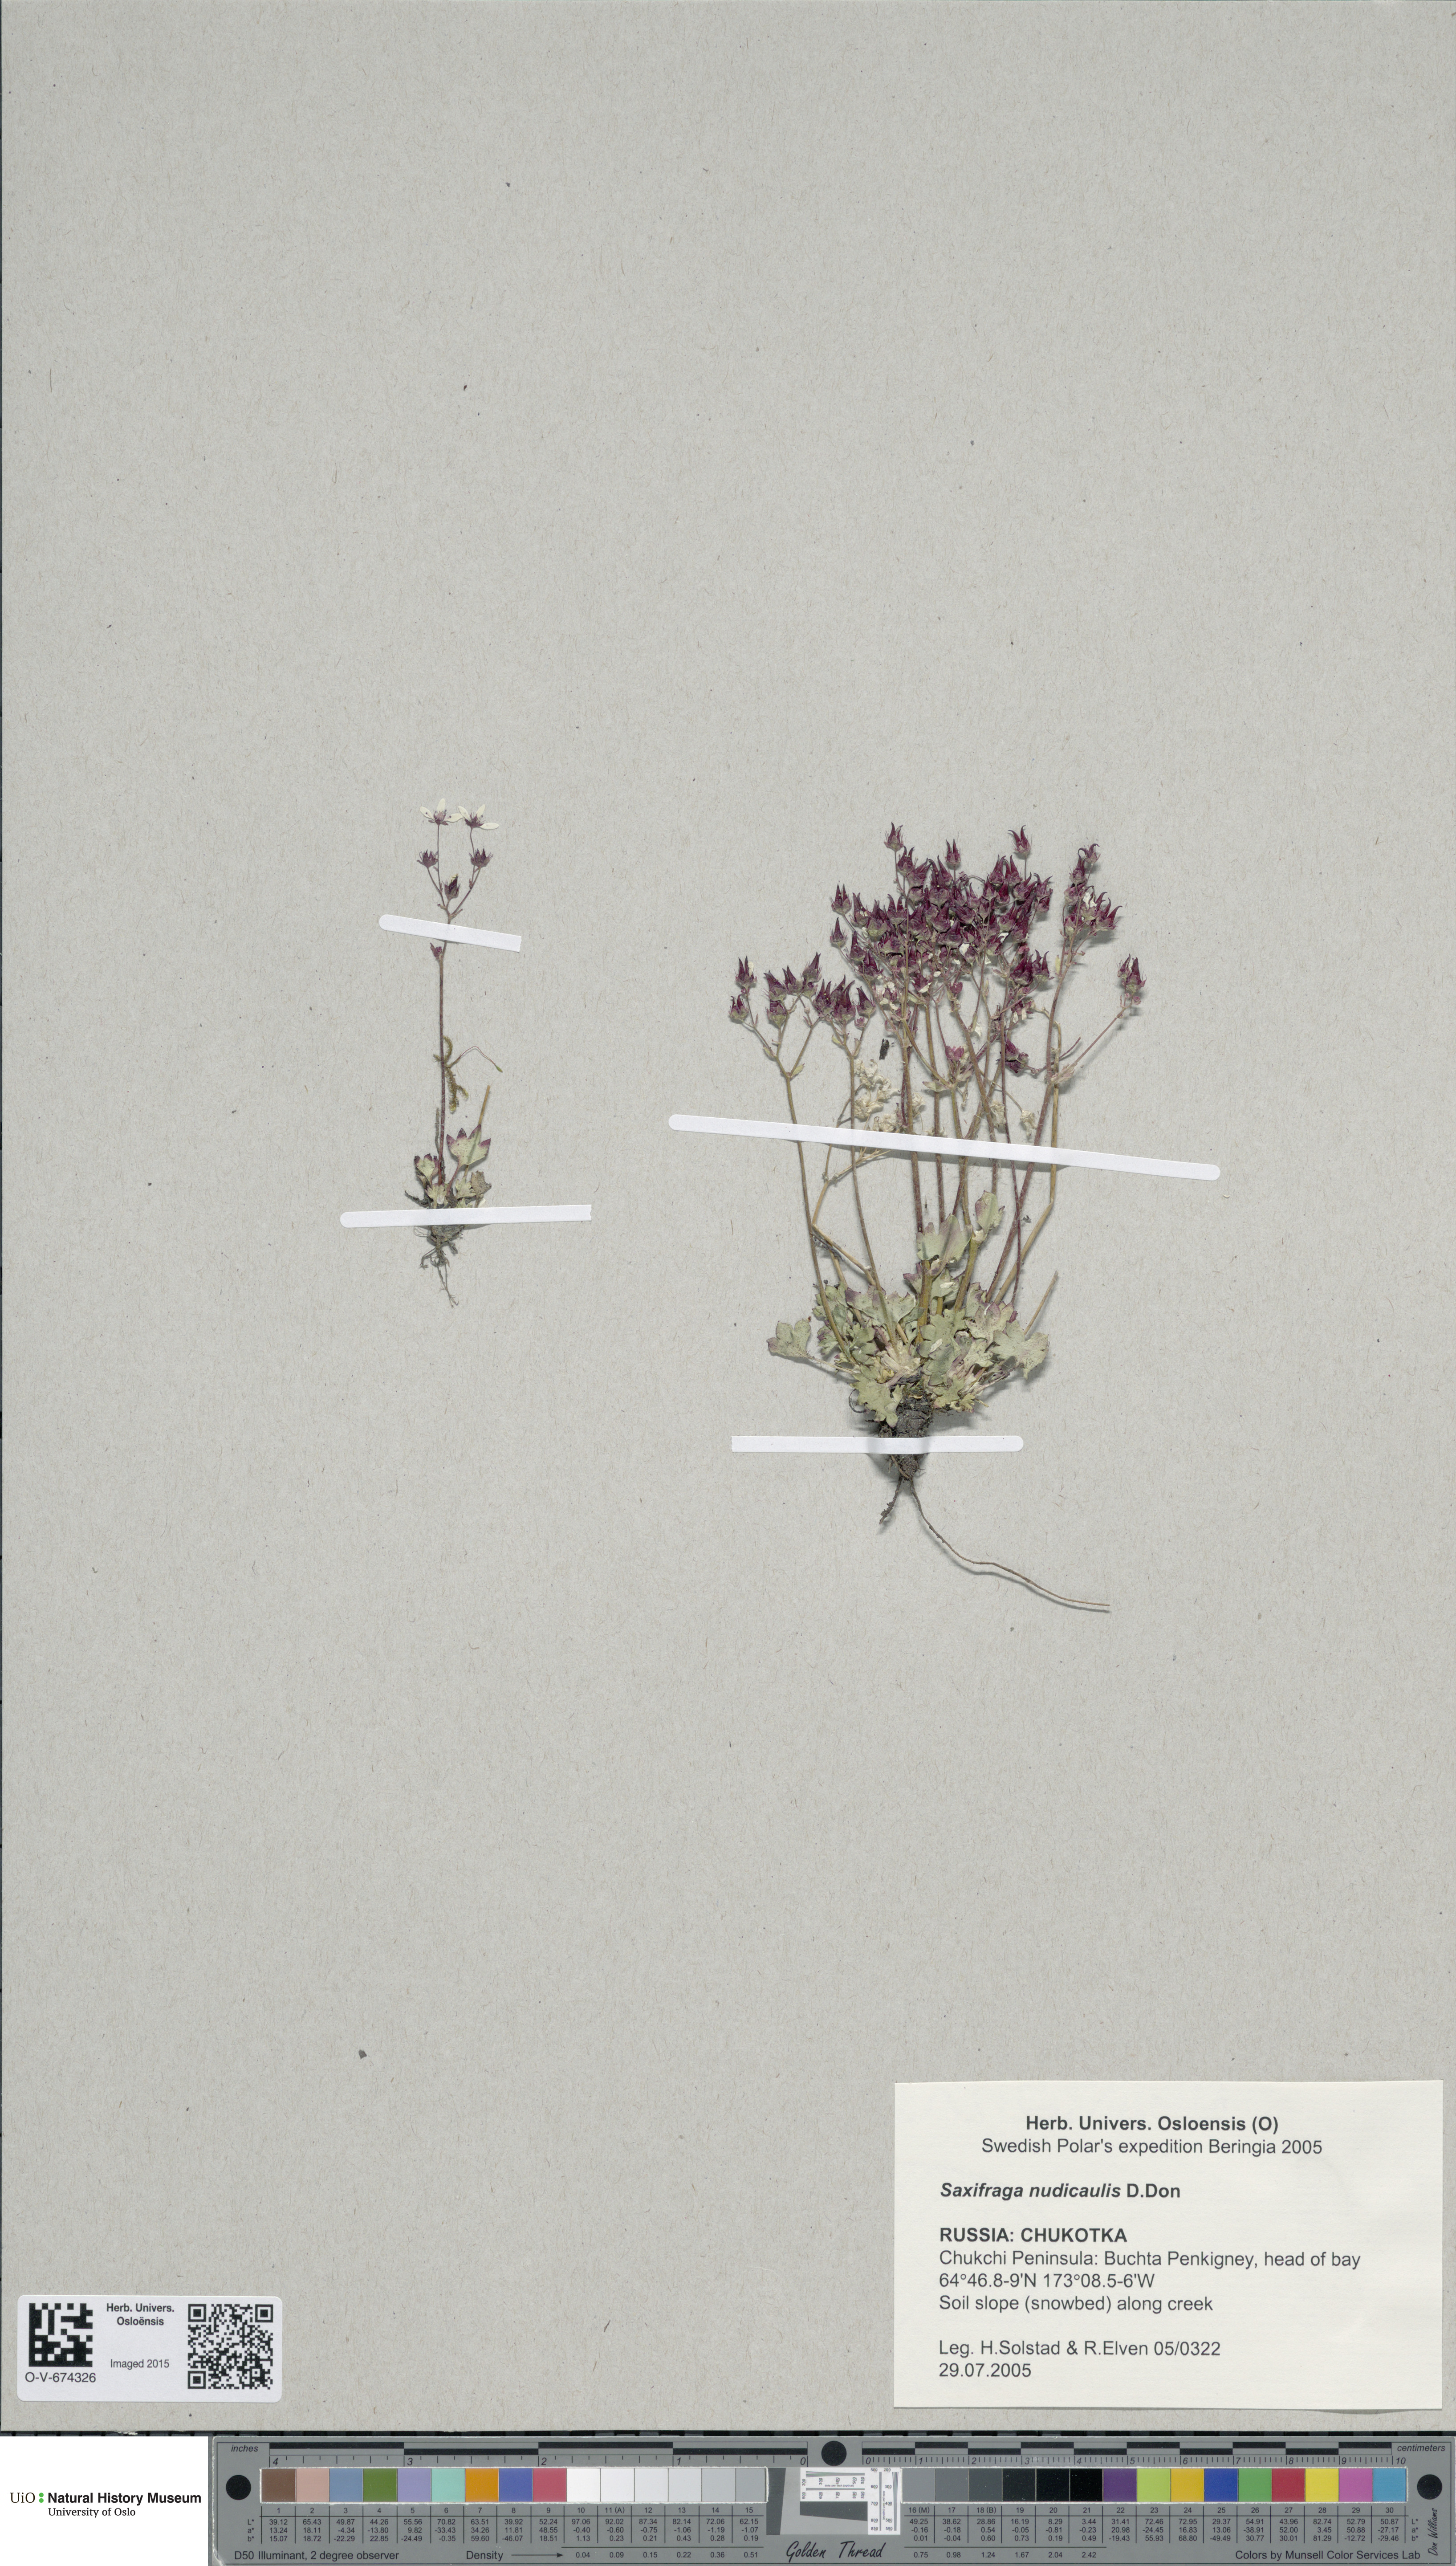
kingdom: Plantae
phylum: Tracheophyta
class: Magnoliopsida
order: Saxifragales
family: Saxifragaceae
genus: Micranthes
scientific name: Micranthes nudicaulis
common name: Nakedstem saxifrage
